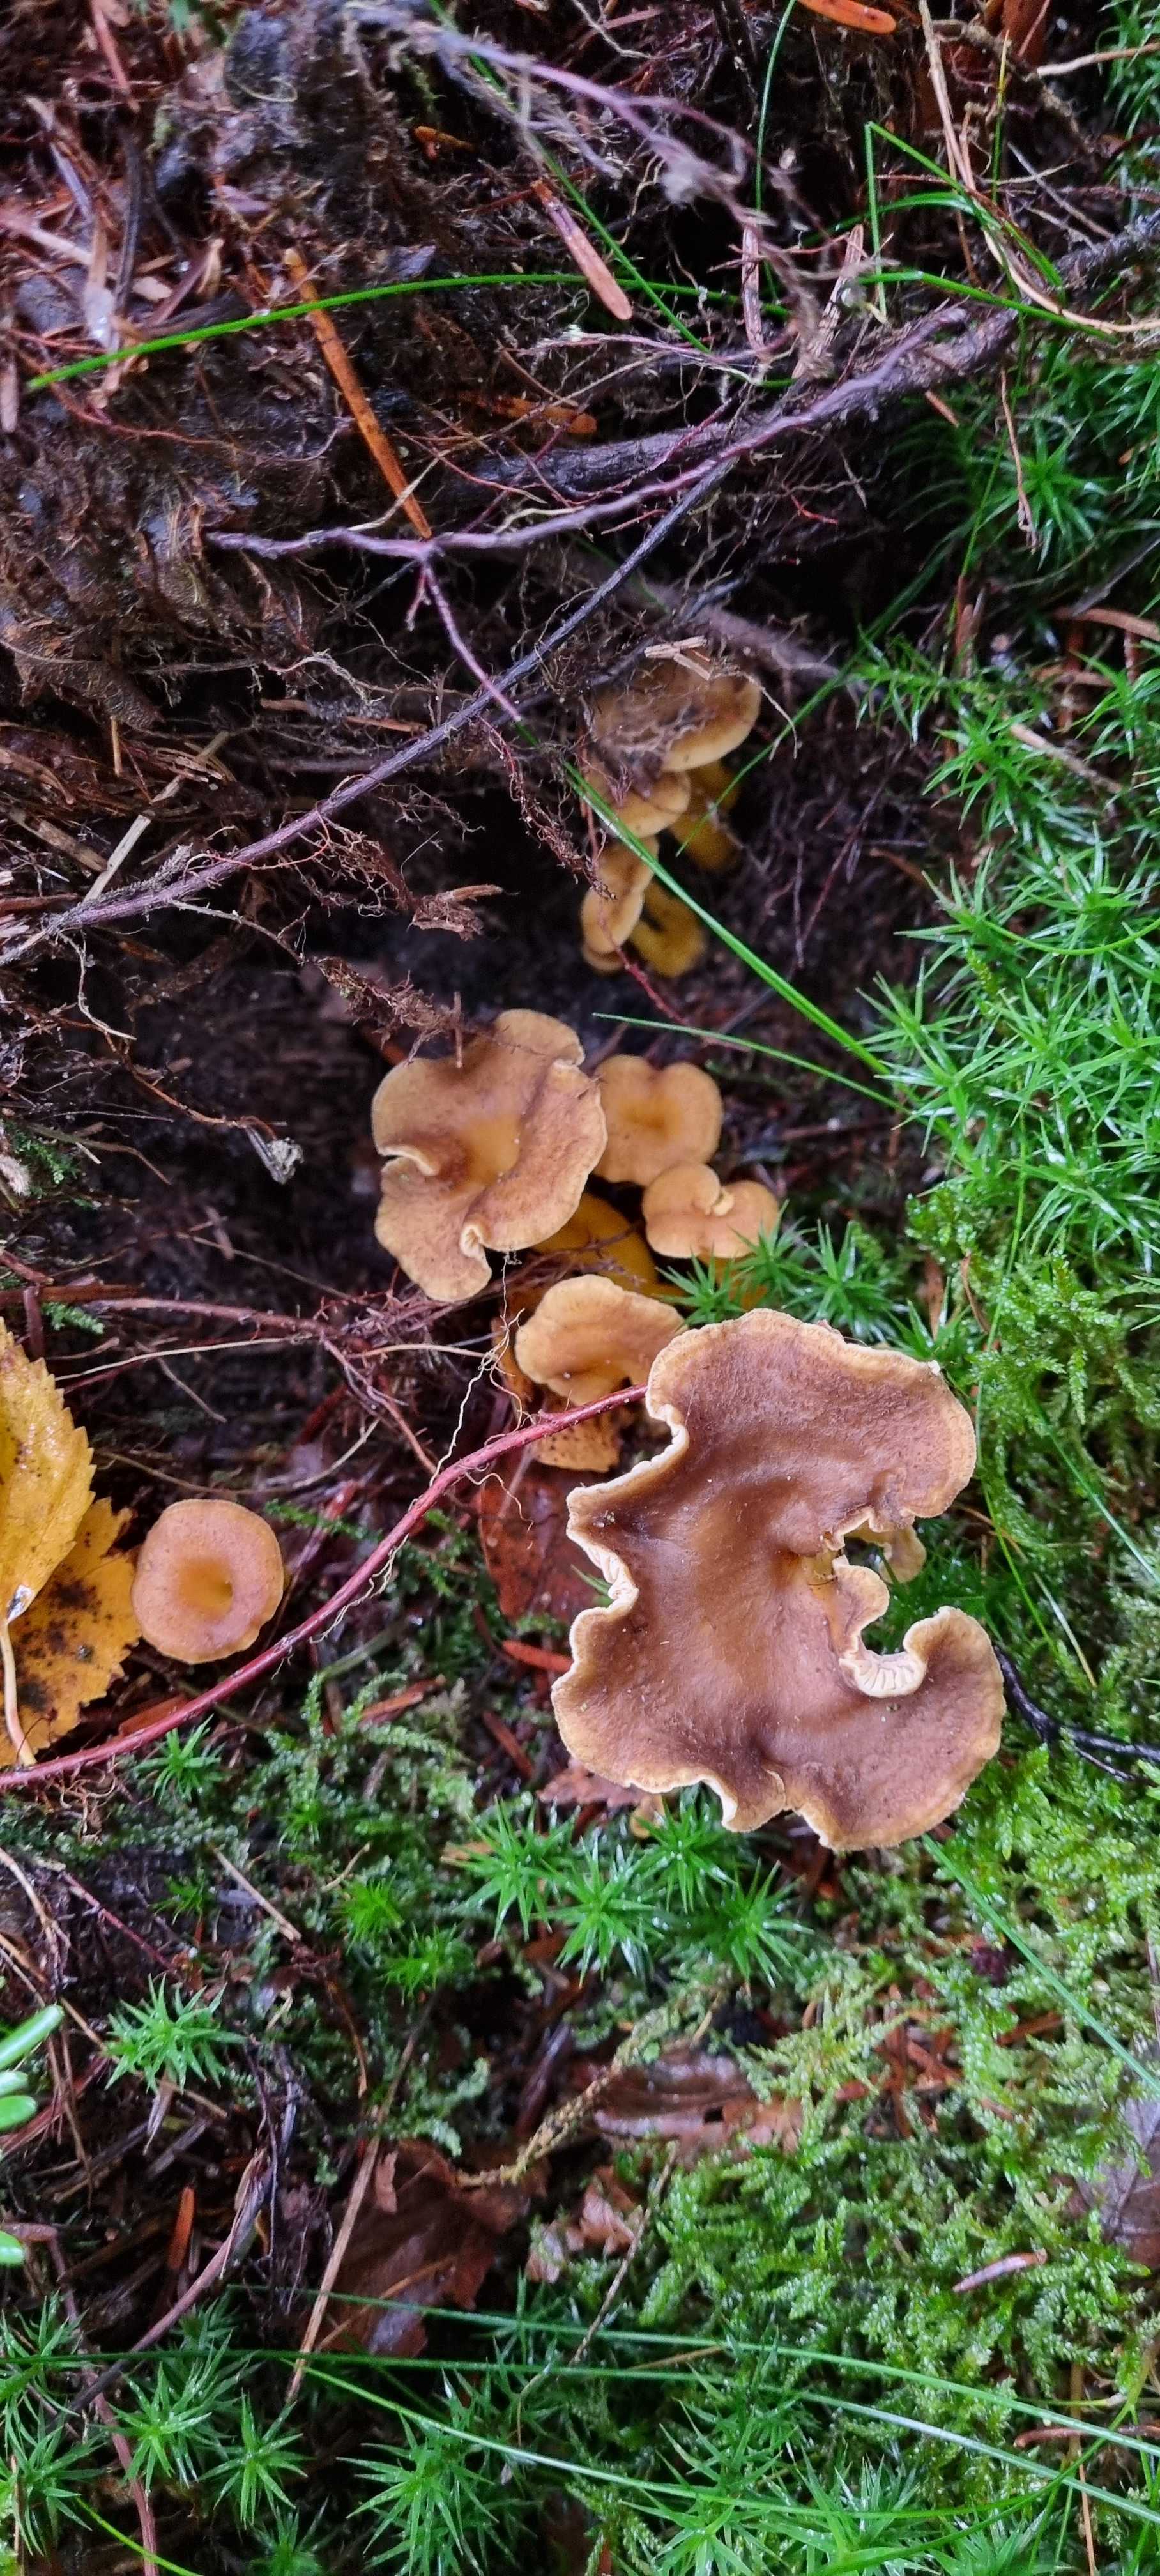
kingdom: Fungi
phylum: Basidiomycota
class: Agaricomycetes
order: Cantharellales
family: Hydnaceae
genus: Craterellus
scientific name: Craterellus tubaeformis
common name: tragt-kantarel
